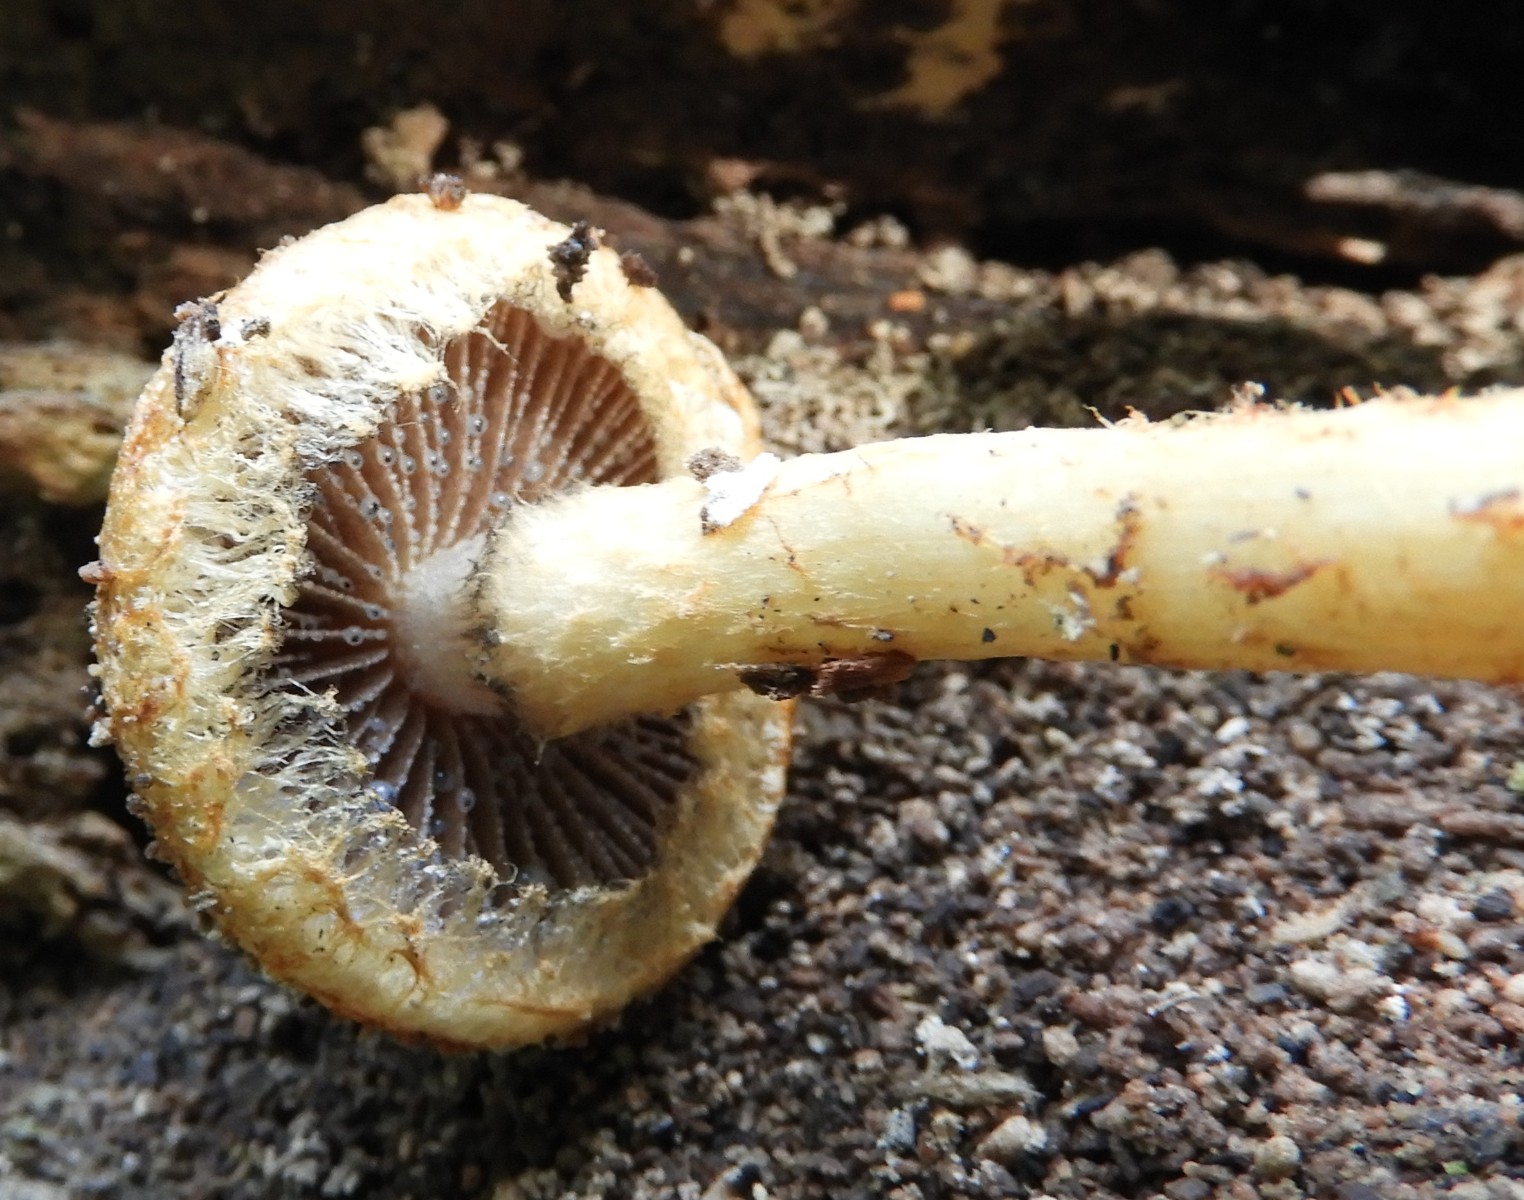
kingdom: Fungi
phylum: Basidiomycota
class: Agaricomycetes
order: Agaricales
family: Psathyrellaceae
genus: Lacrymaria
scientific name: Lacrymaria lacrymabunda
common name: grædende mørkhat
